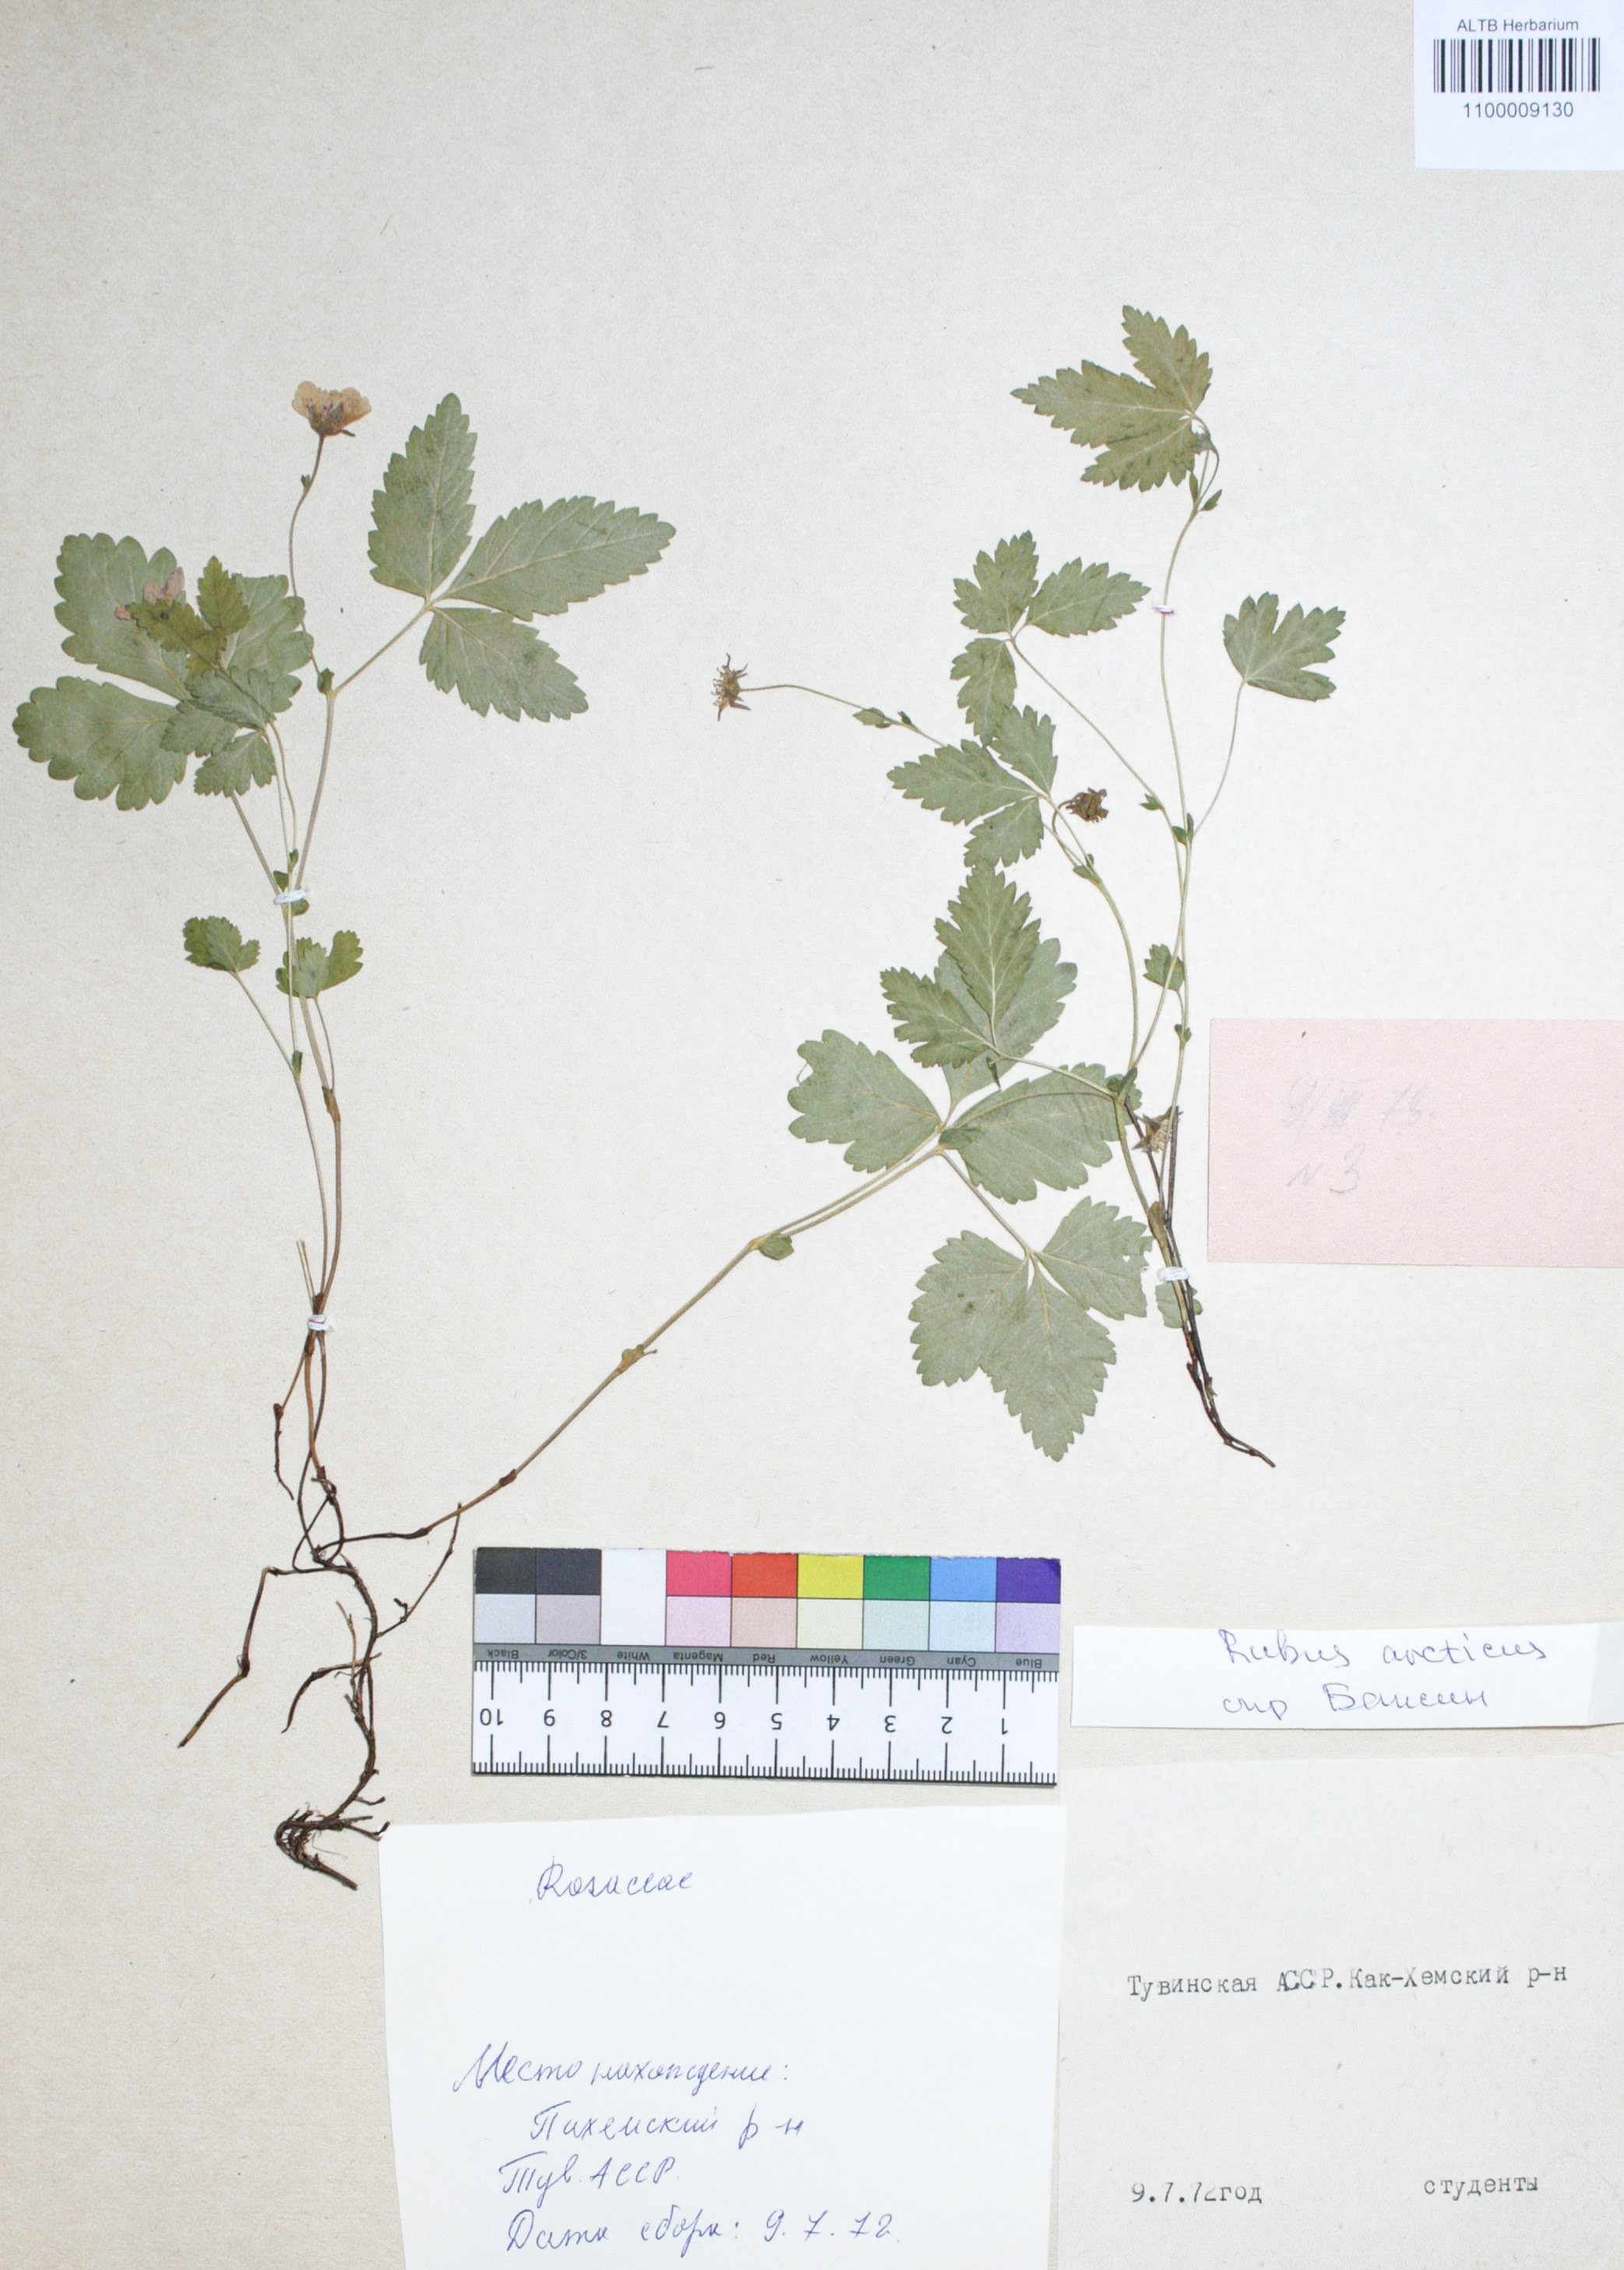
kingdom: Plantae
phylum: Tracheophyta
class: Magnoliopsida
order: Rosales
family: Rosaceae
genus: Rubus
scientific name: Rubus arcticus
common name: Arctic bramble
